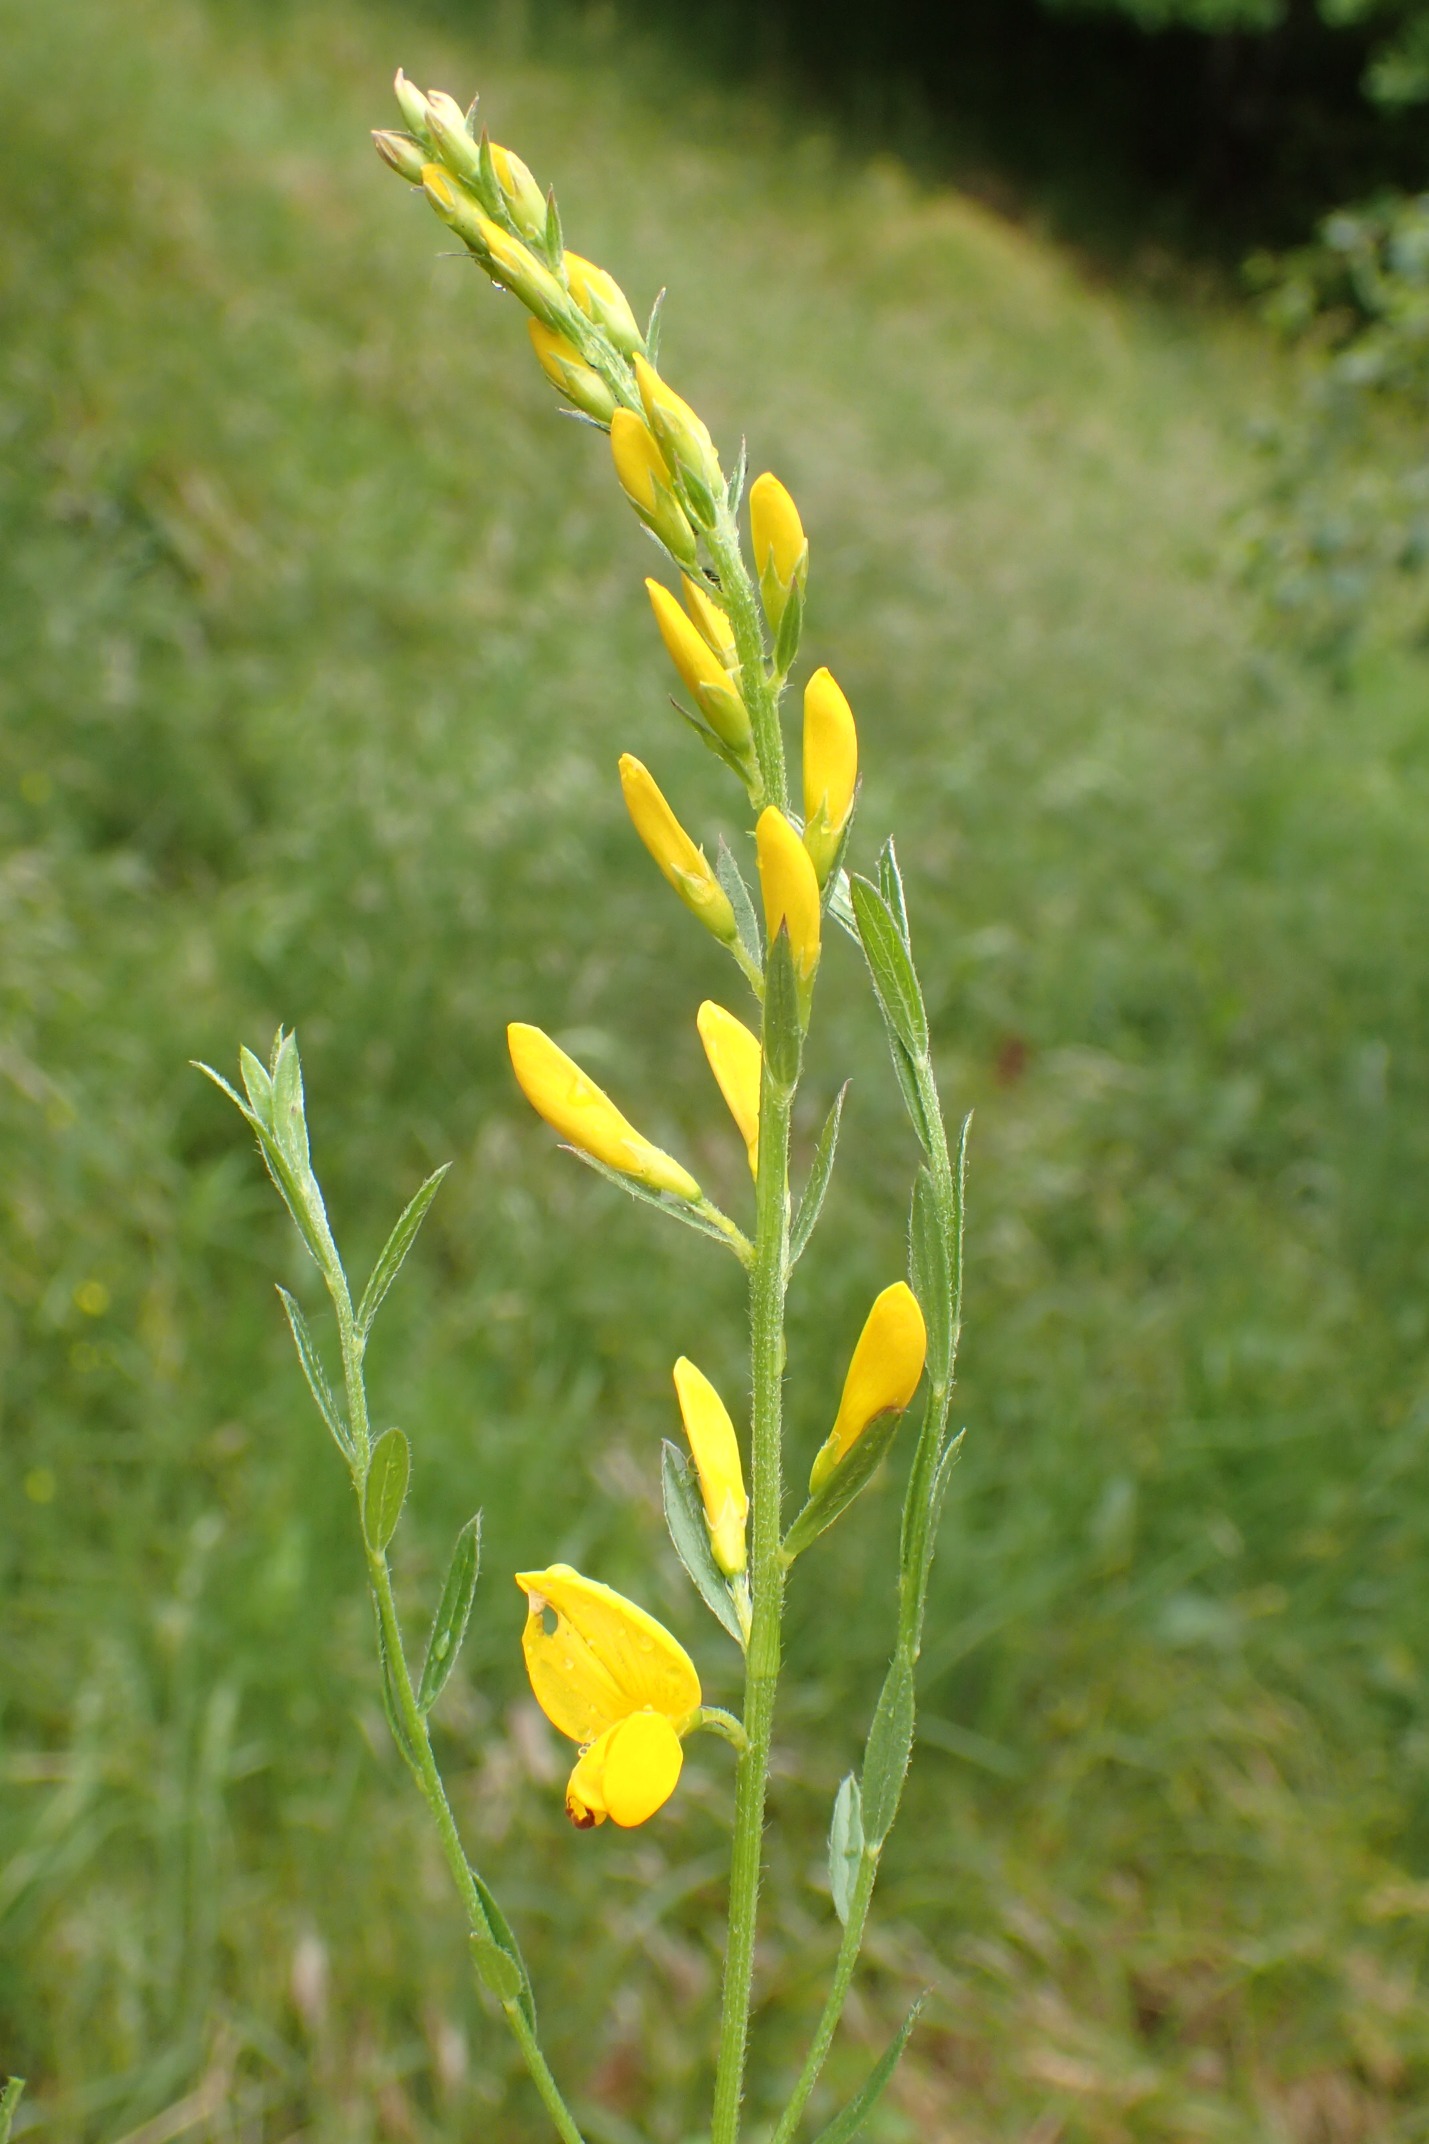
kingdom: Plantae
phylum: Tracheophyta
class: Magnoliopsida
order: Fabales
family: Fabaceae
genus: Genista
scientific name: Genista tinctoria
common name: Farve-visse
